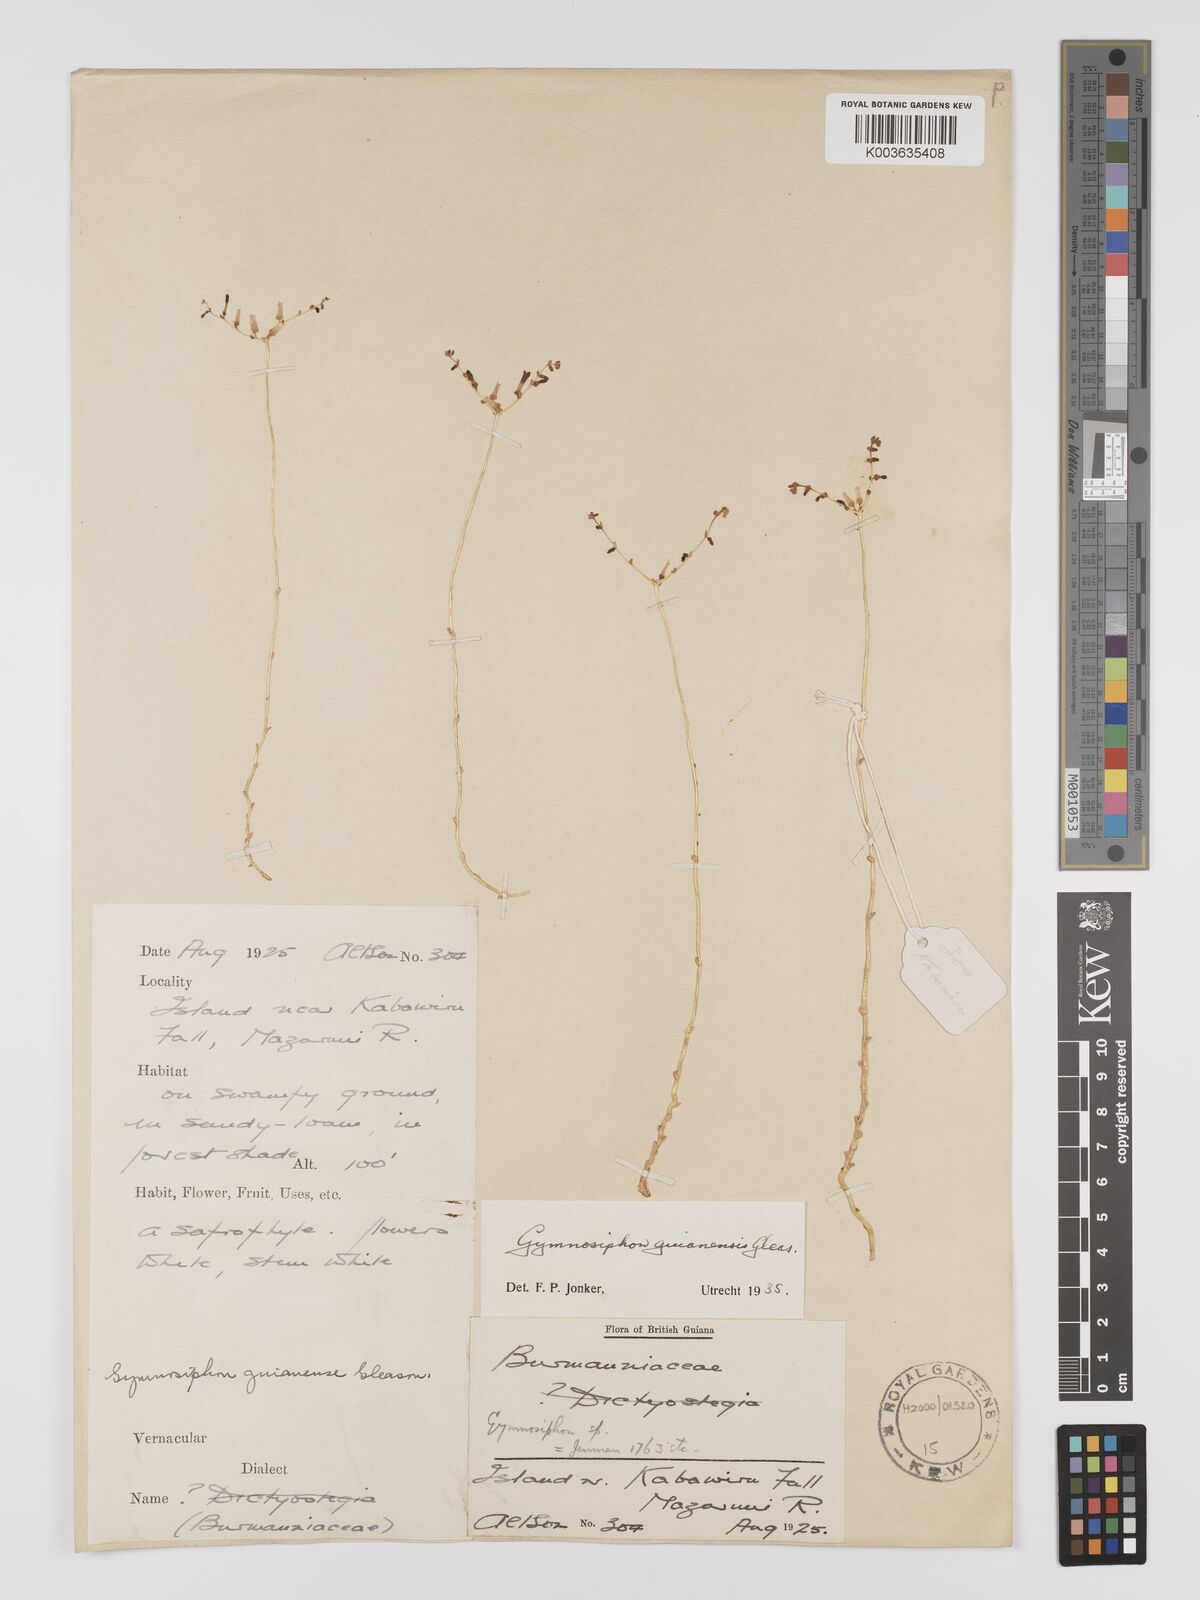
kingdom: Plantae
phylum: Tracheophyta
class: Liliopsida
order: Dioscoreales
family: Burmanniaceae
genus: Gymnosiphon
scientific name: Gymnosiphon guianensis
